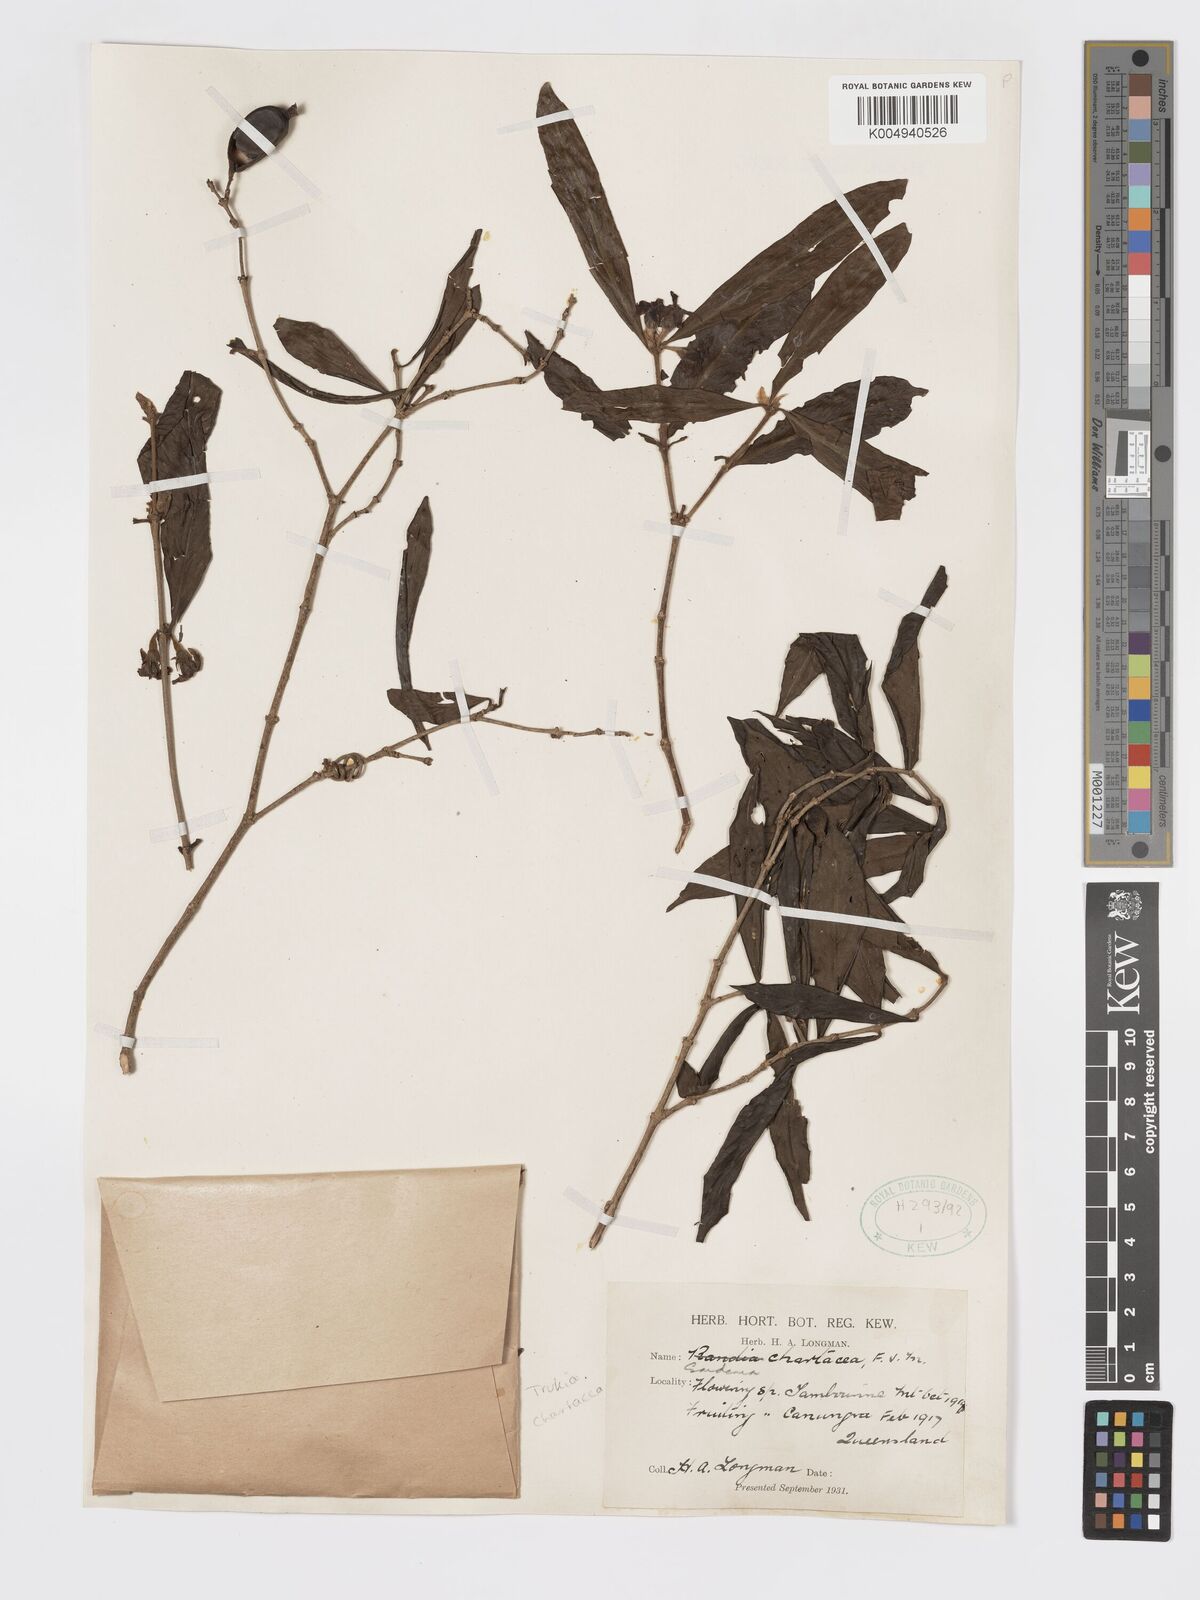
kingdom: Plantae
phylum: Tracheophyta
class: Magnoliopsida
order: Gentianales
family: Rubiaceae
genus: Atractocarpus
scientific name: Atractocarpus chartaceus
